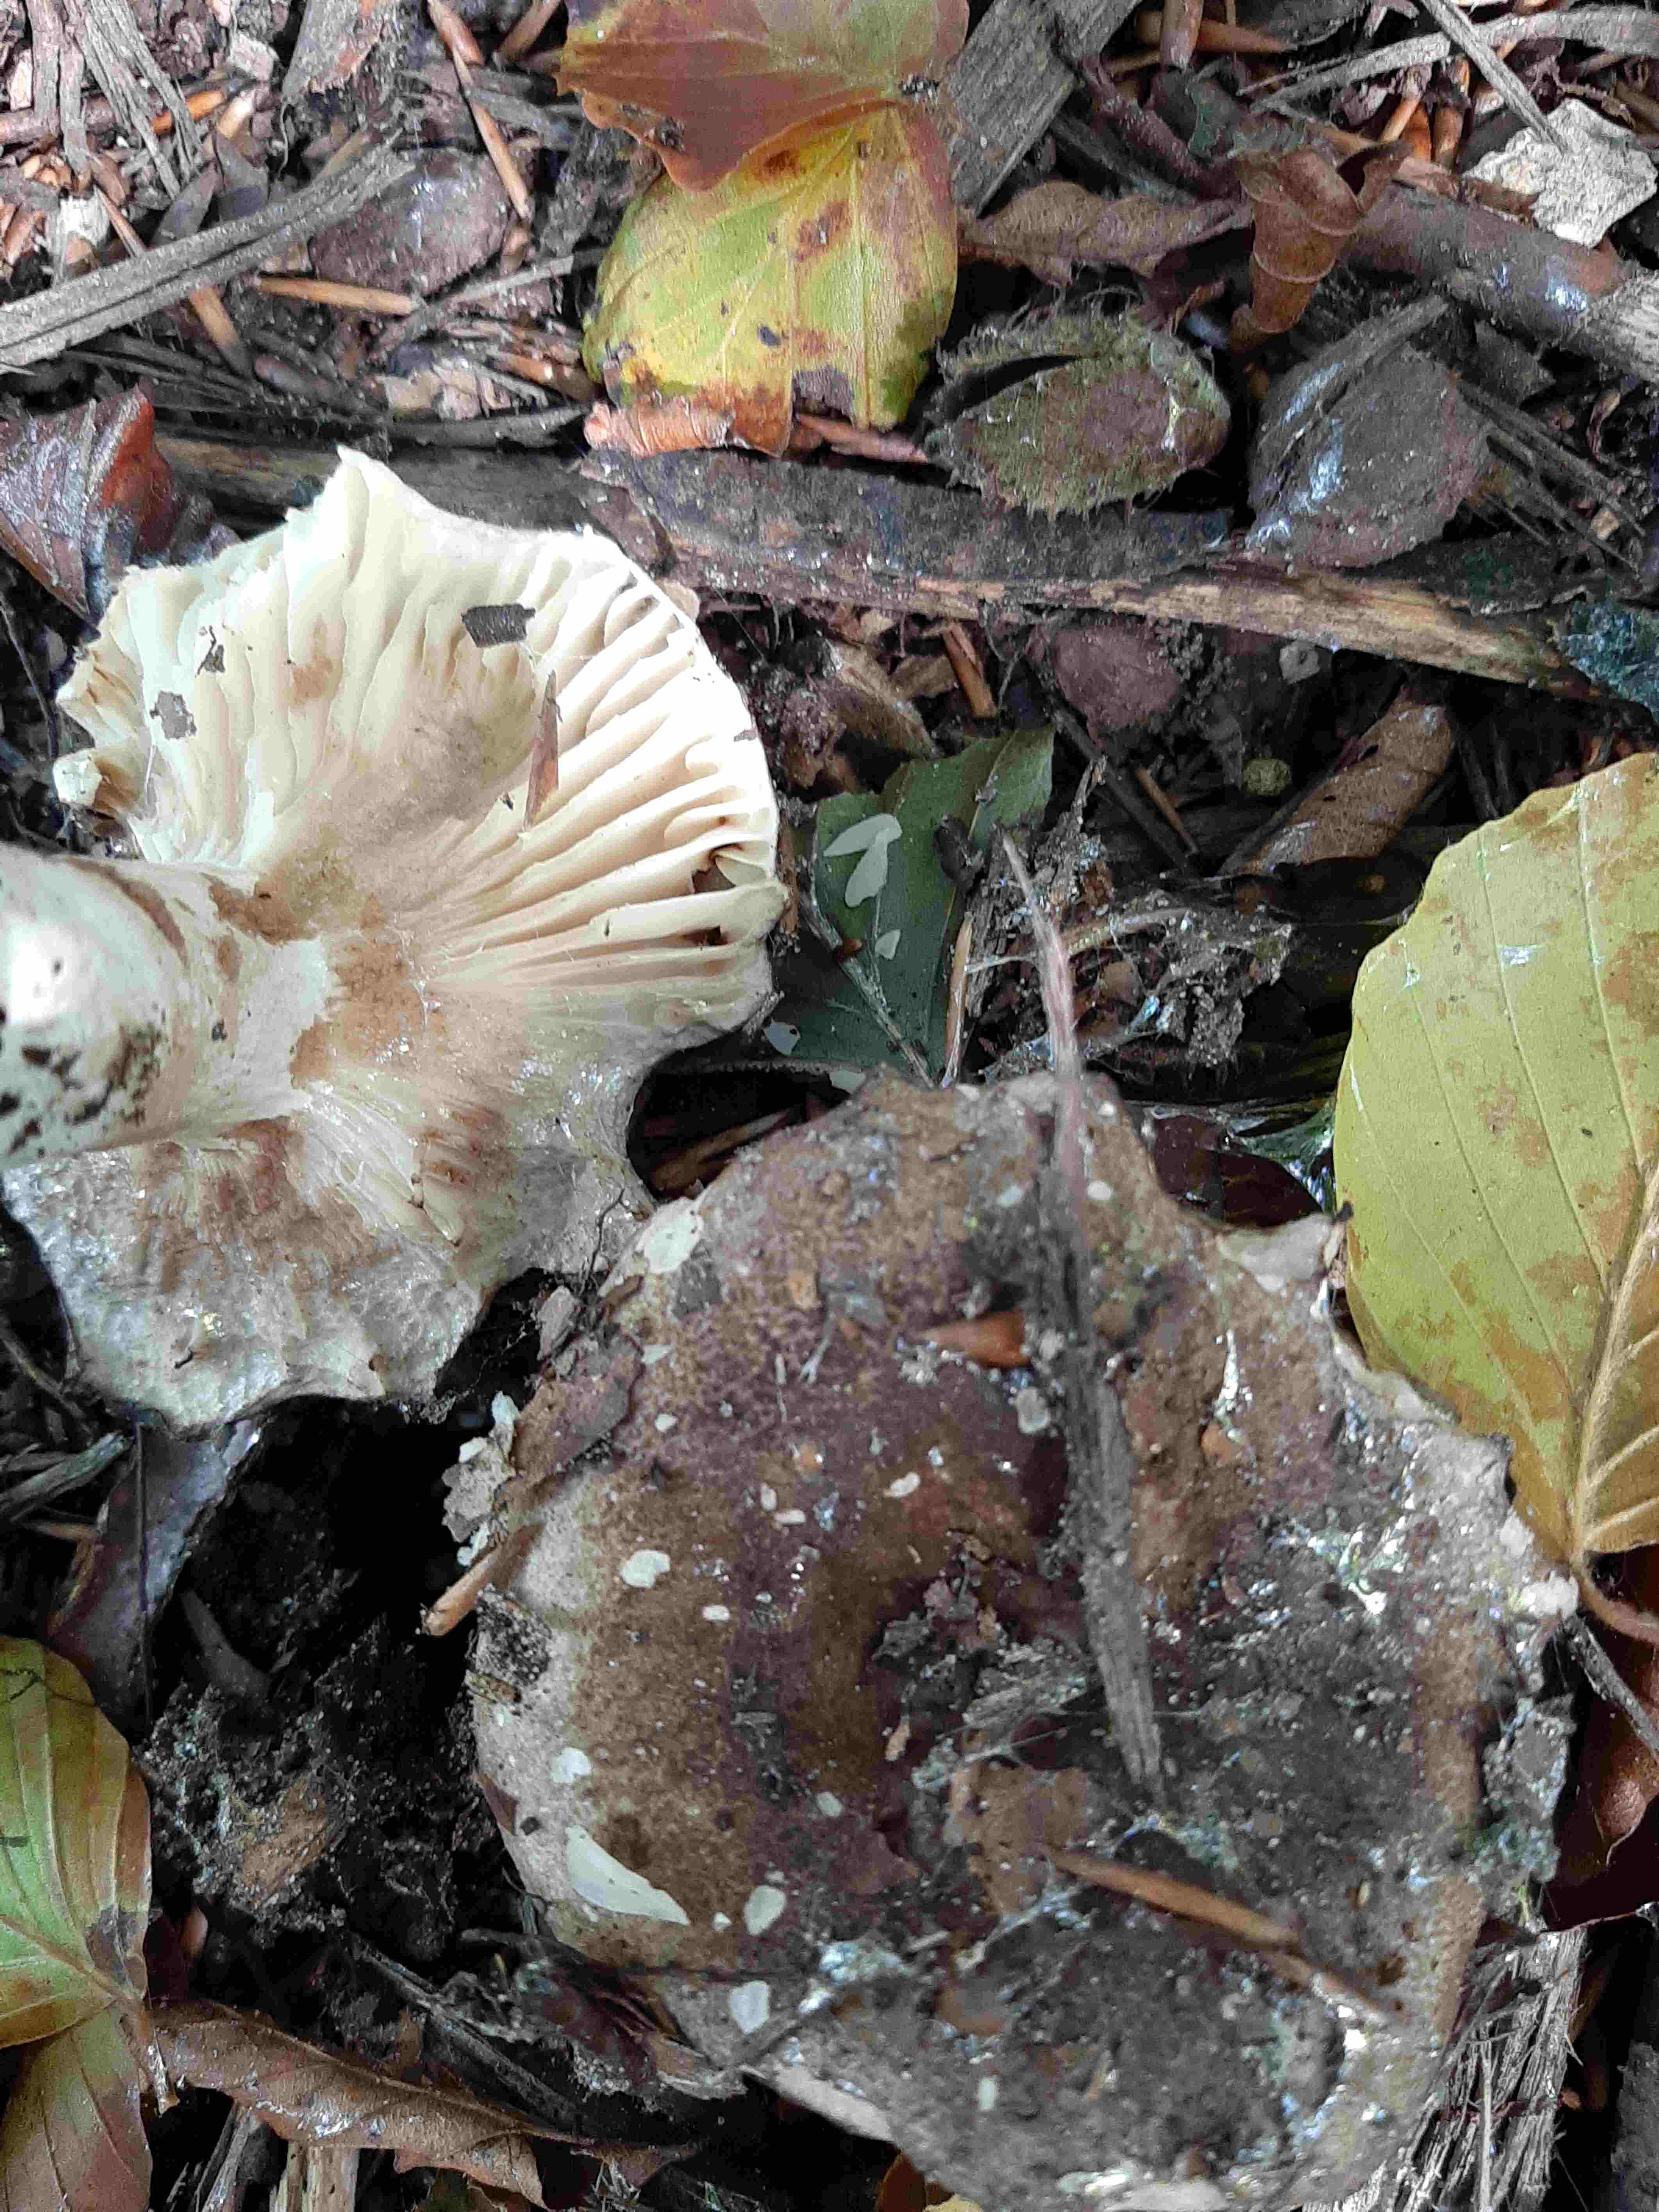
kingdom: Fungi
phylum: Basidiomycota
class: Agaricomycetes
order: Russulales
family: Russulaceae
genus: Russula
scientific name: Russula adusta
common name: sværtende skørhat
